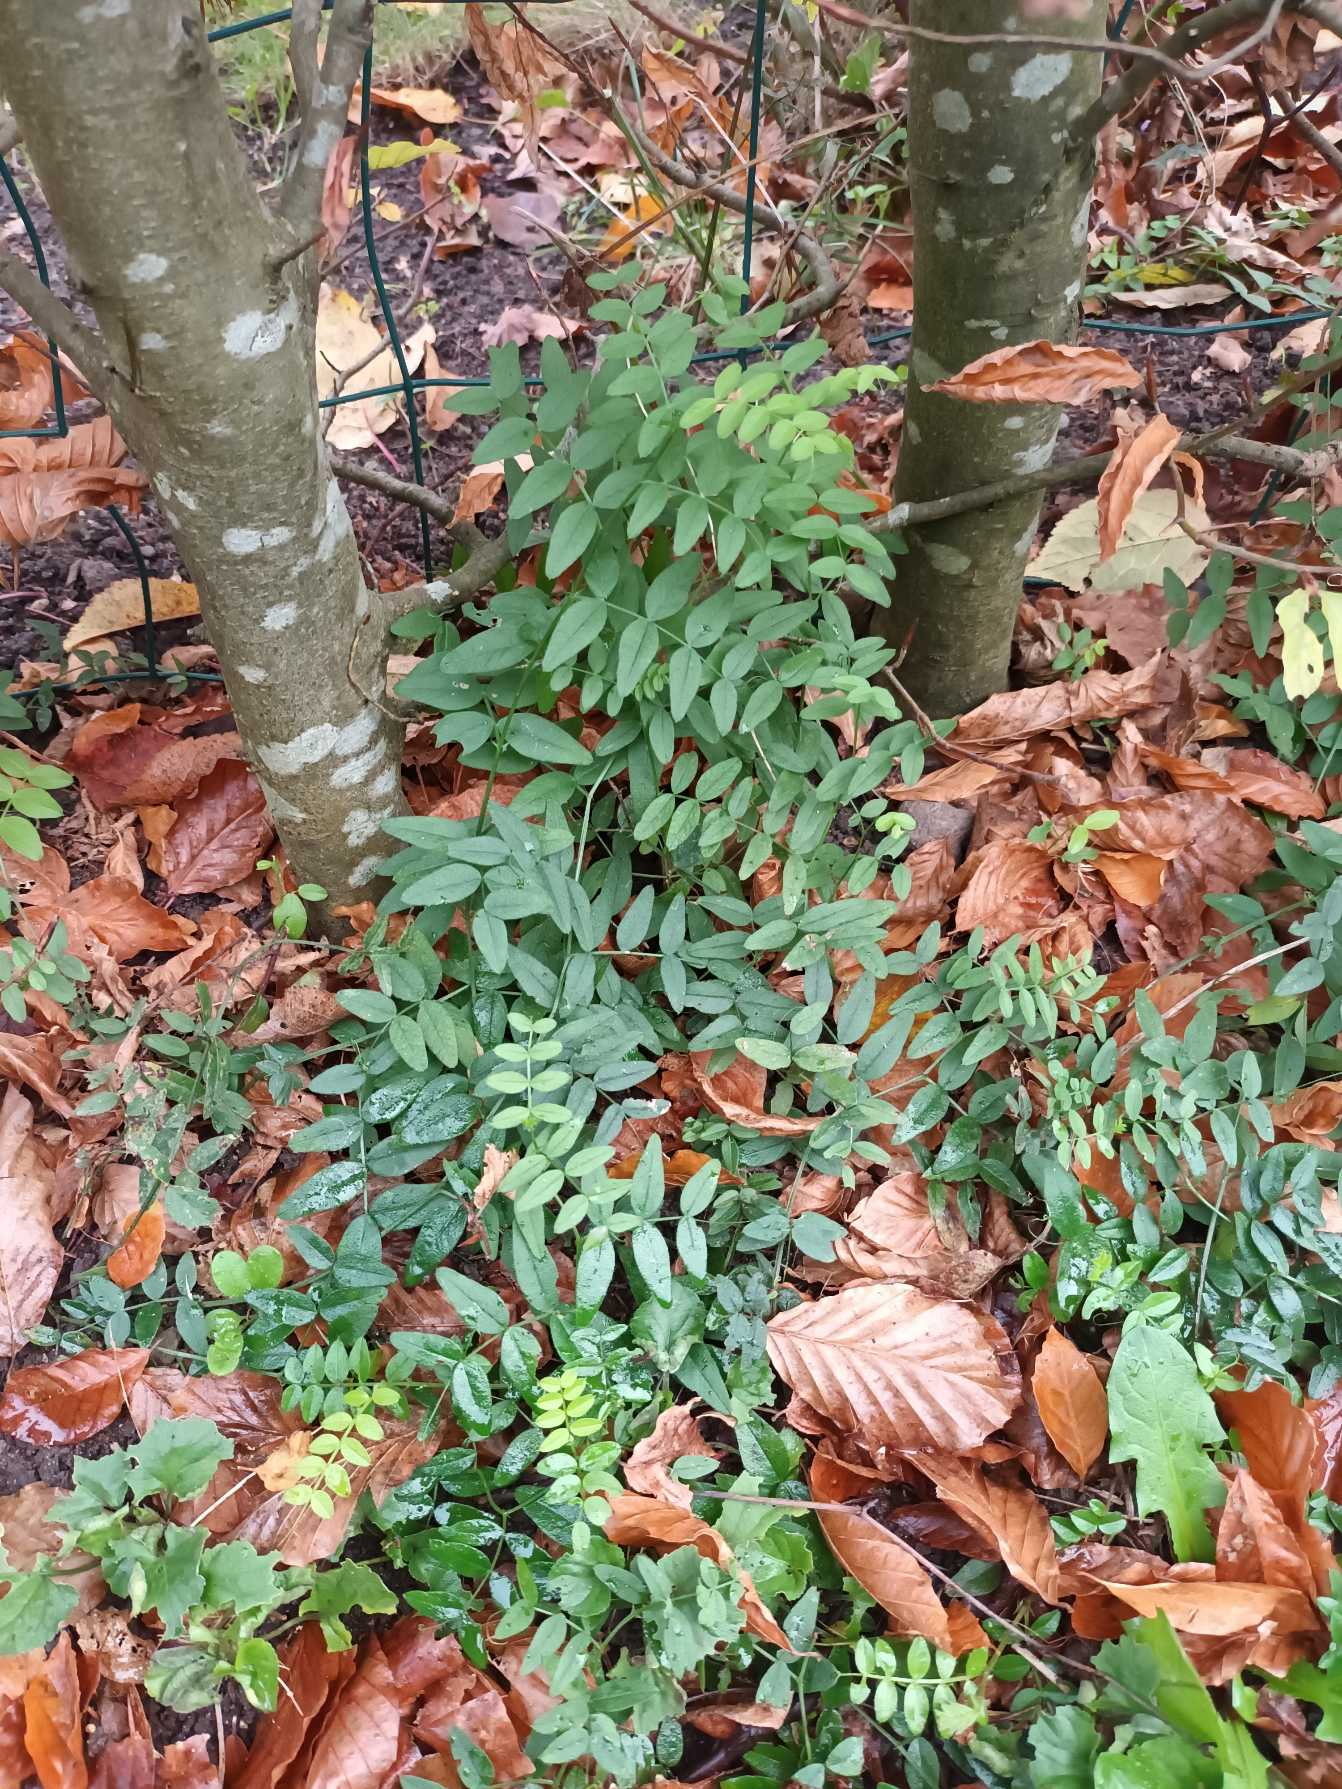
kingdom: Plantae
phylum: Tracheophyta
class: Magnoliopsida
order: Fabales
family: Fabaceae
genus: Vicia
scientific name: Vicia sepium
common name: Gærde-vikke
